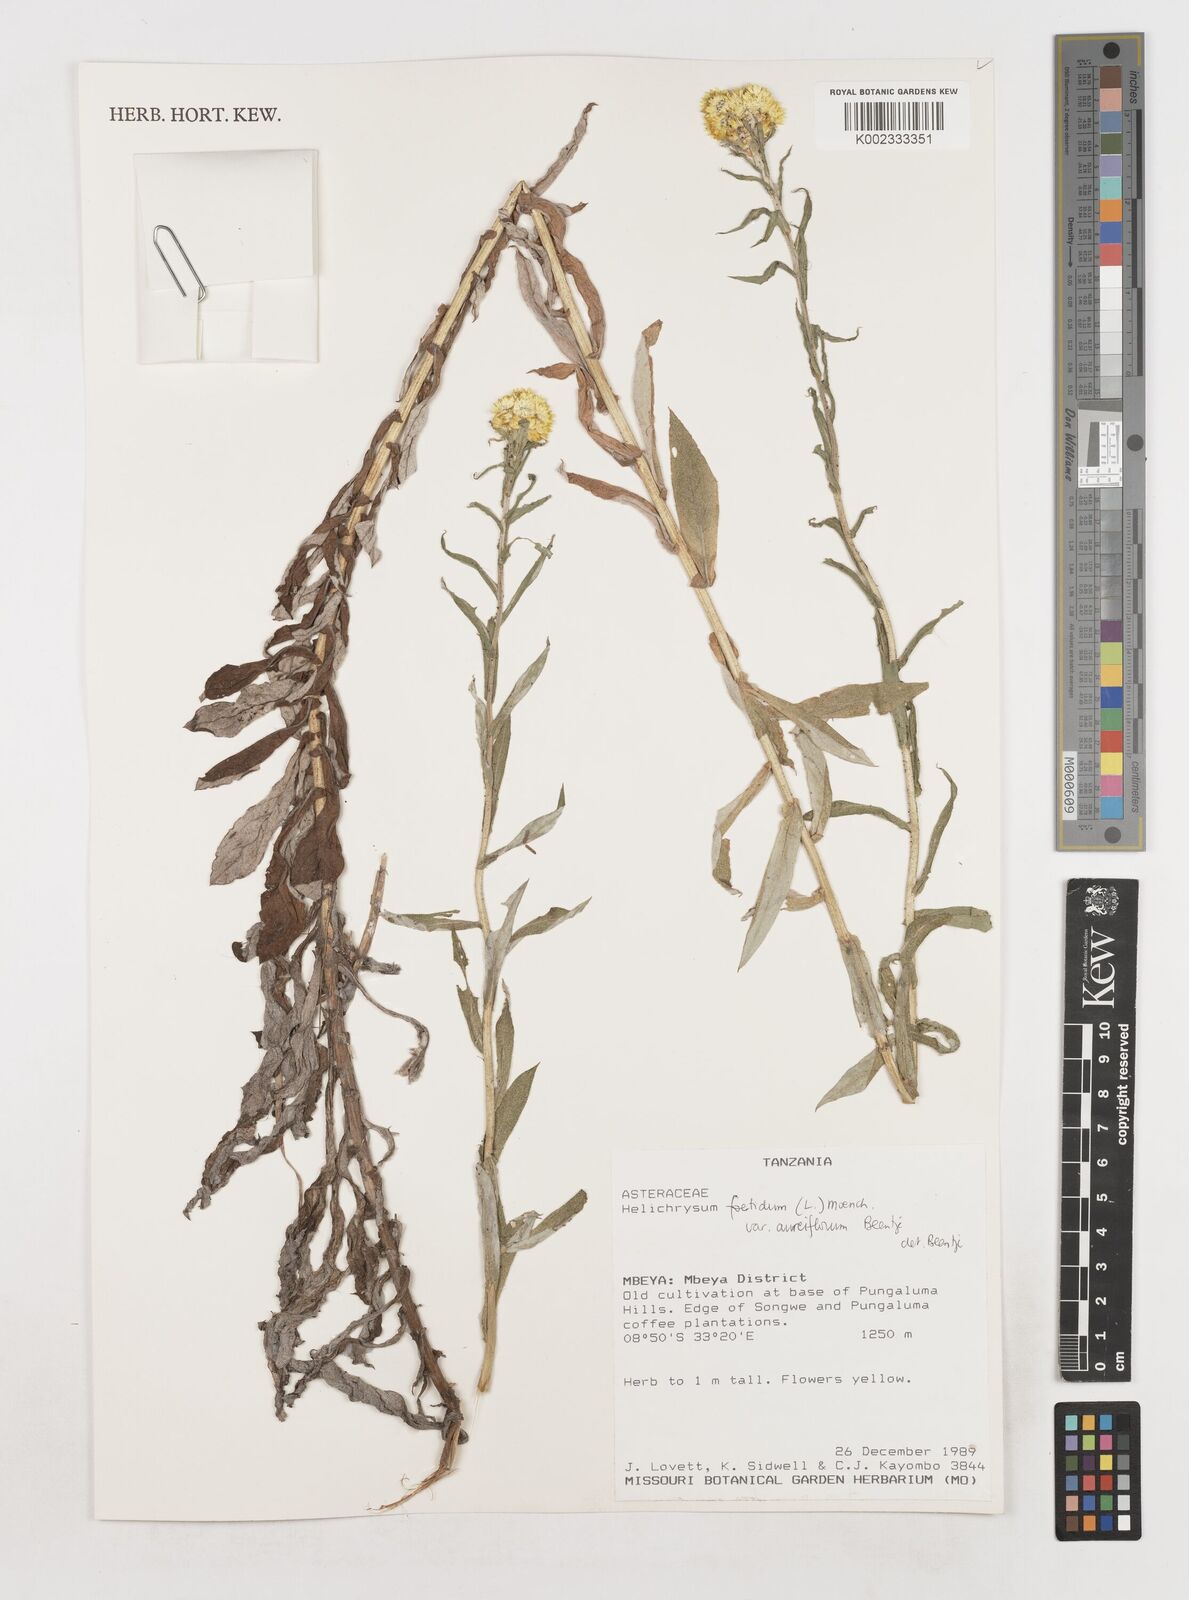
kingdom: Plantae
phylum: Tracheophyta
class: Magnoliopsida
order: Asterales
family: Asteraceae
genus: Helichrysum
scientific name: Helichrysum foetidum
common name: Stinking everlasting
